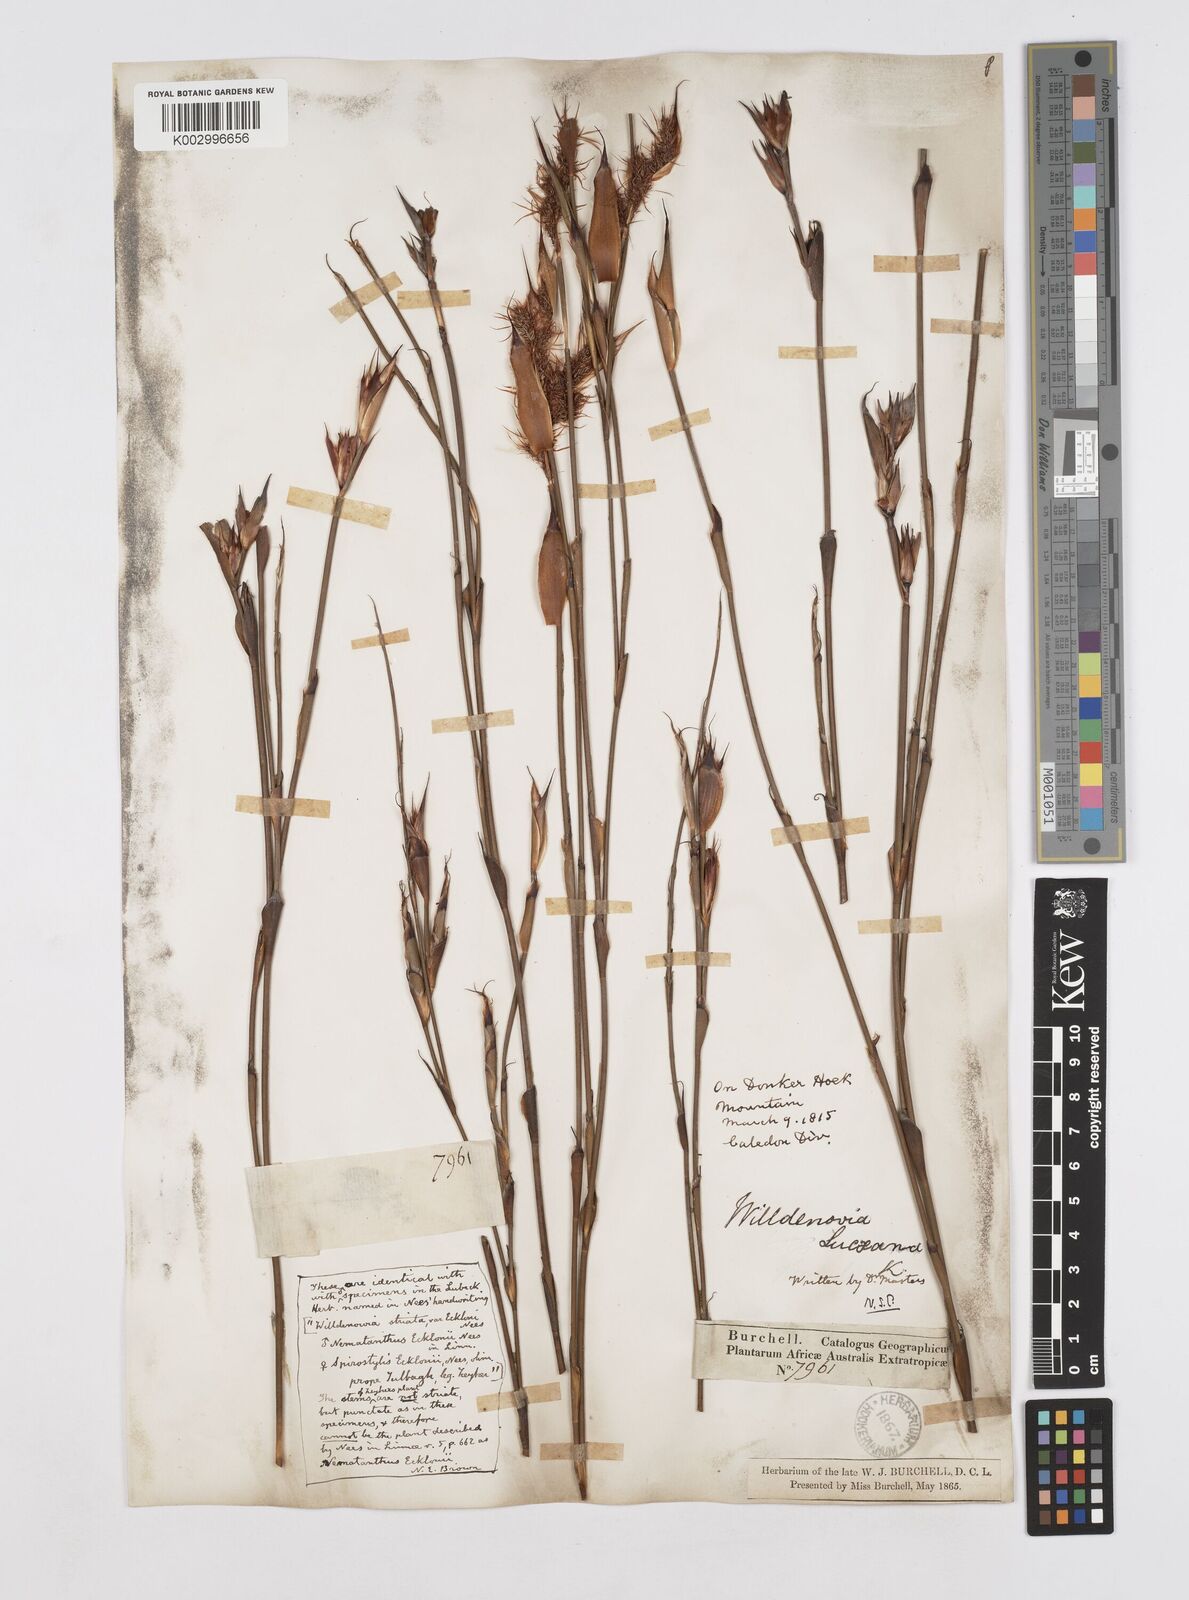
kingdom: Plantae
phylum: Tracheophyta
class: Liliopsida
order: Poales
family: Restionaceae
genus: Willdenowia
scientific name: Willdenowia glomerata
